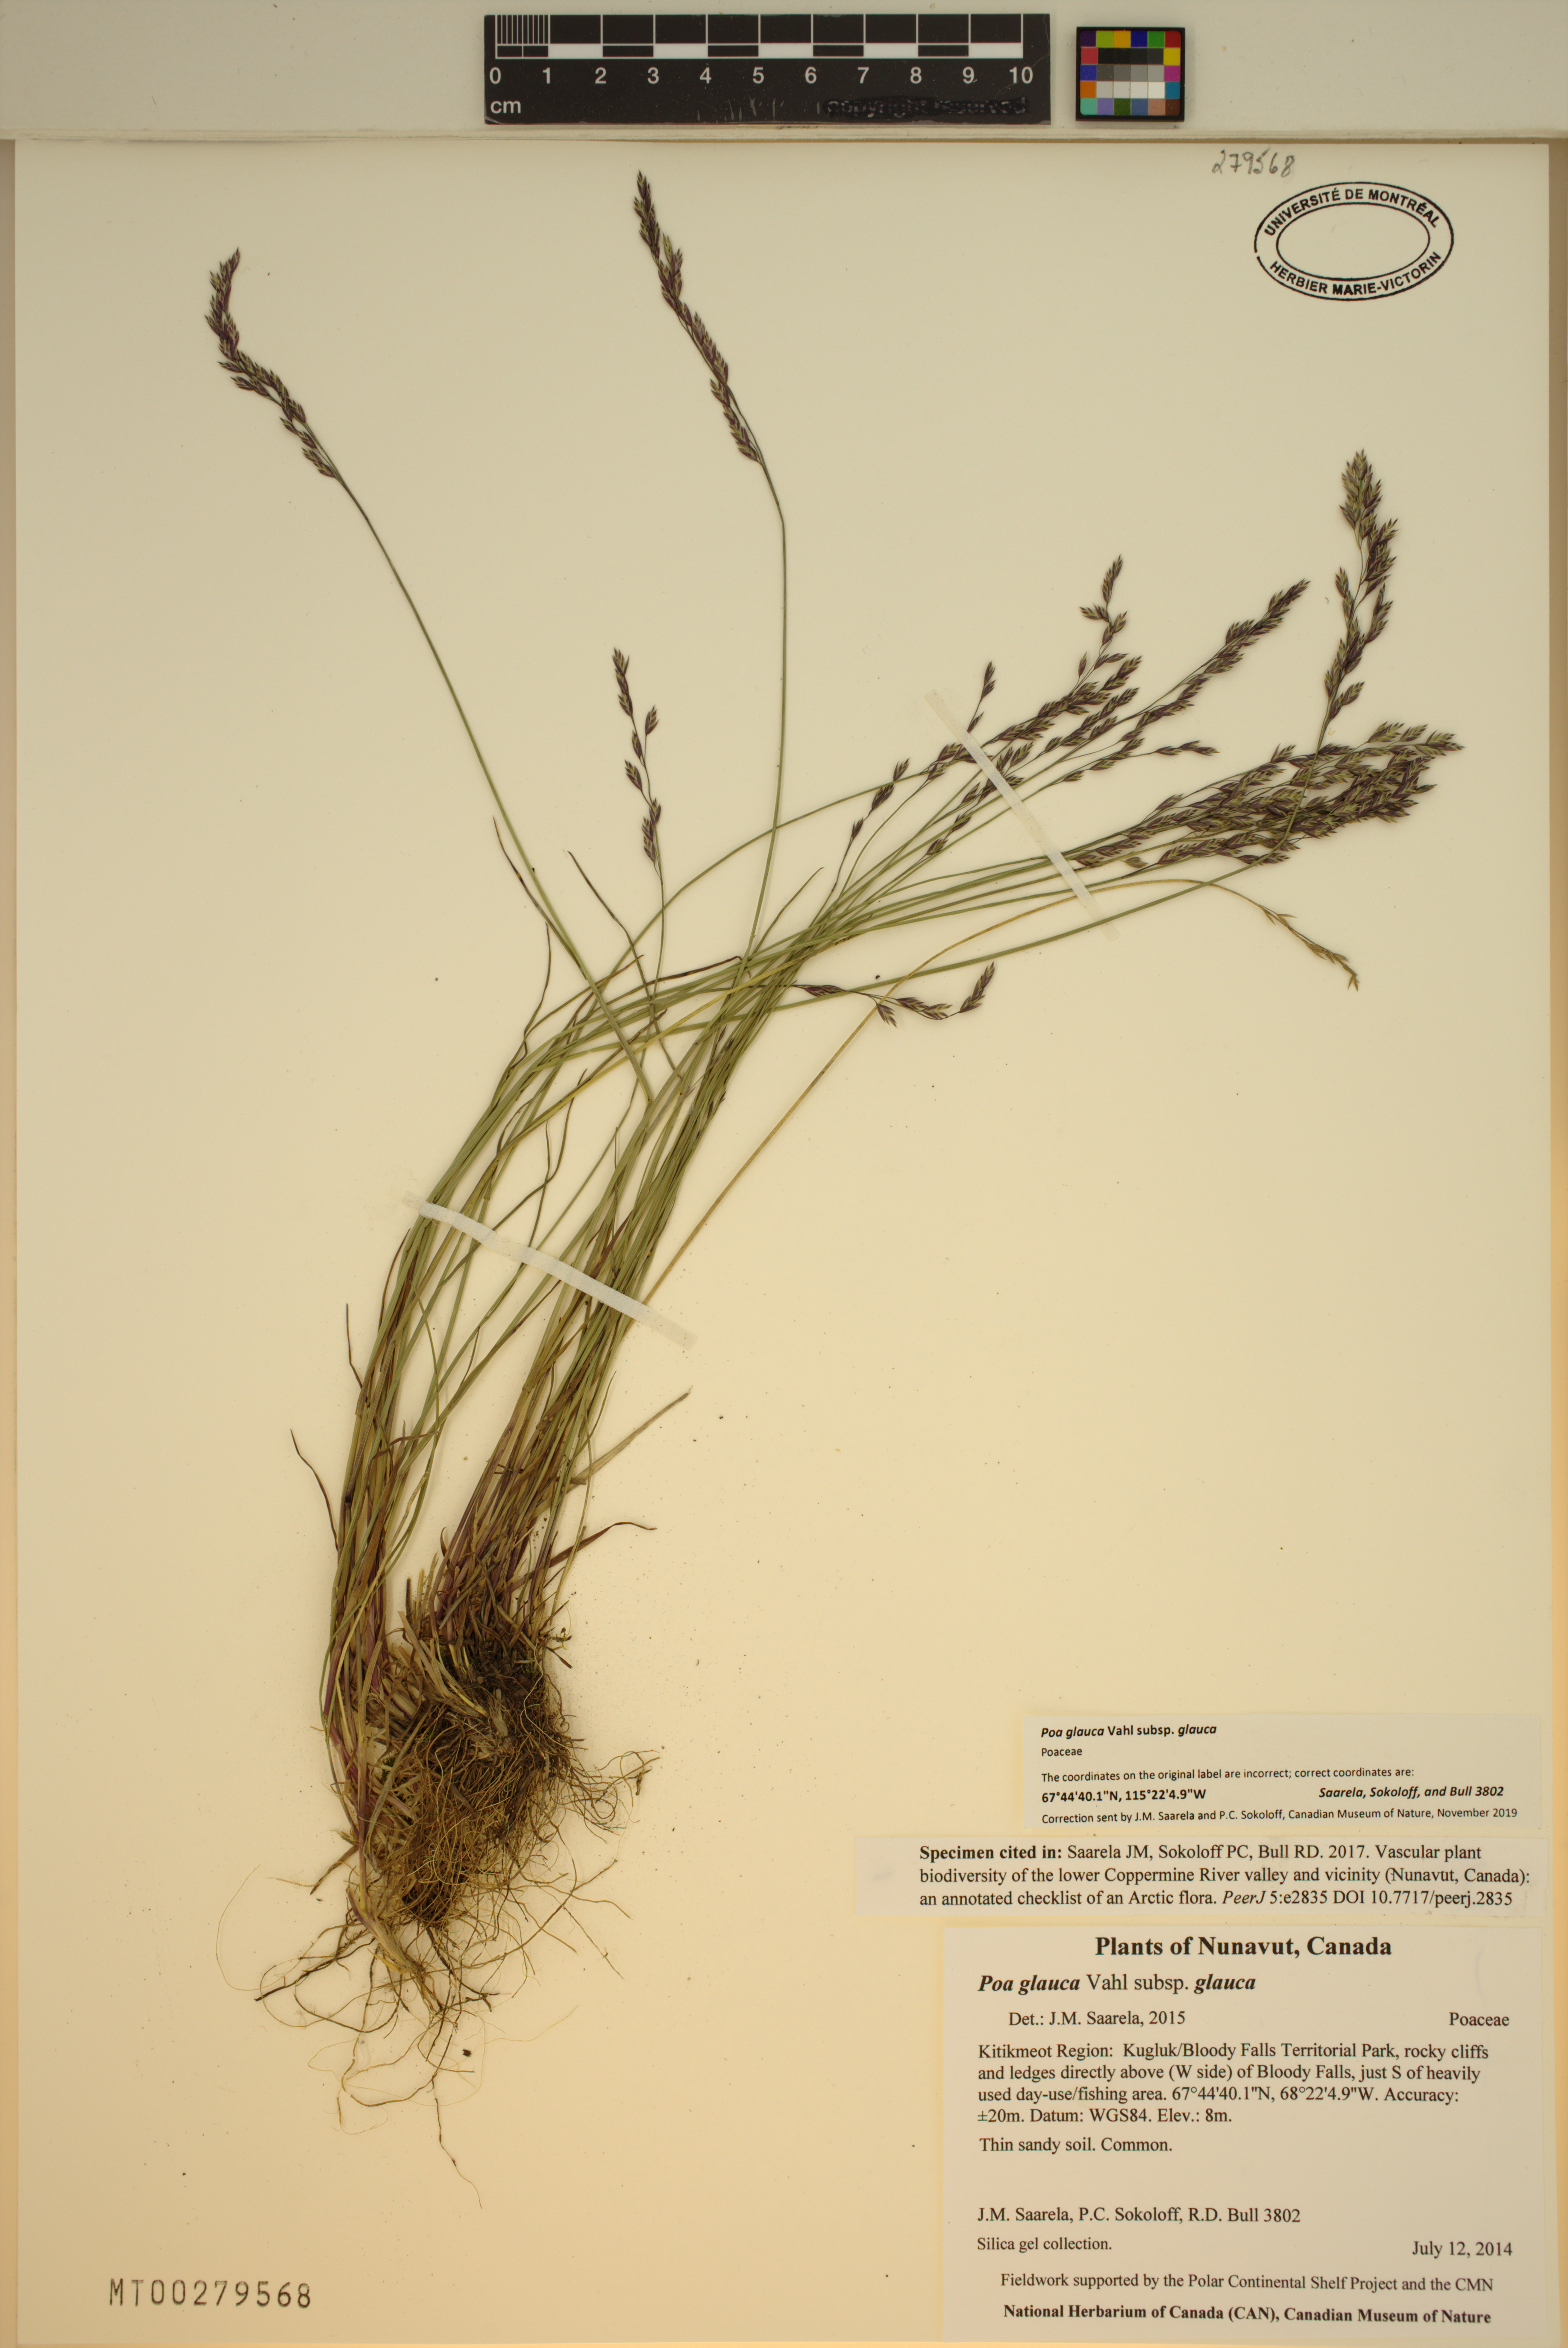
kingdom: Plantae
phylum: Tracheophyta
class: Liliopsida
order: Poales
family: Poaceae
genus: Poa
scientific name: Poa glauca
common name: Glaucous bluegrass
